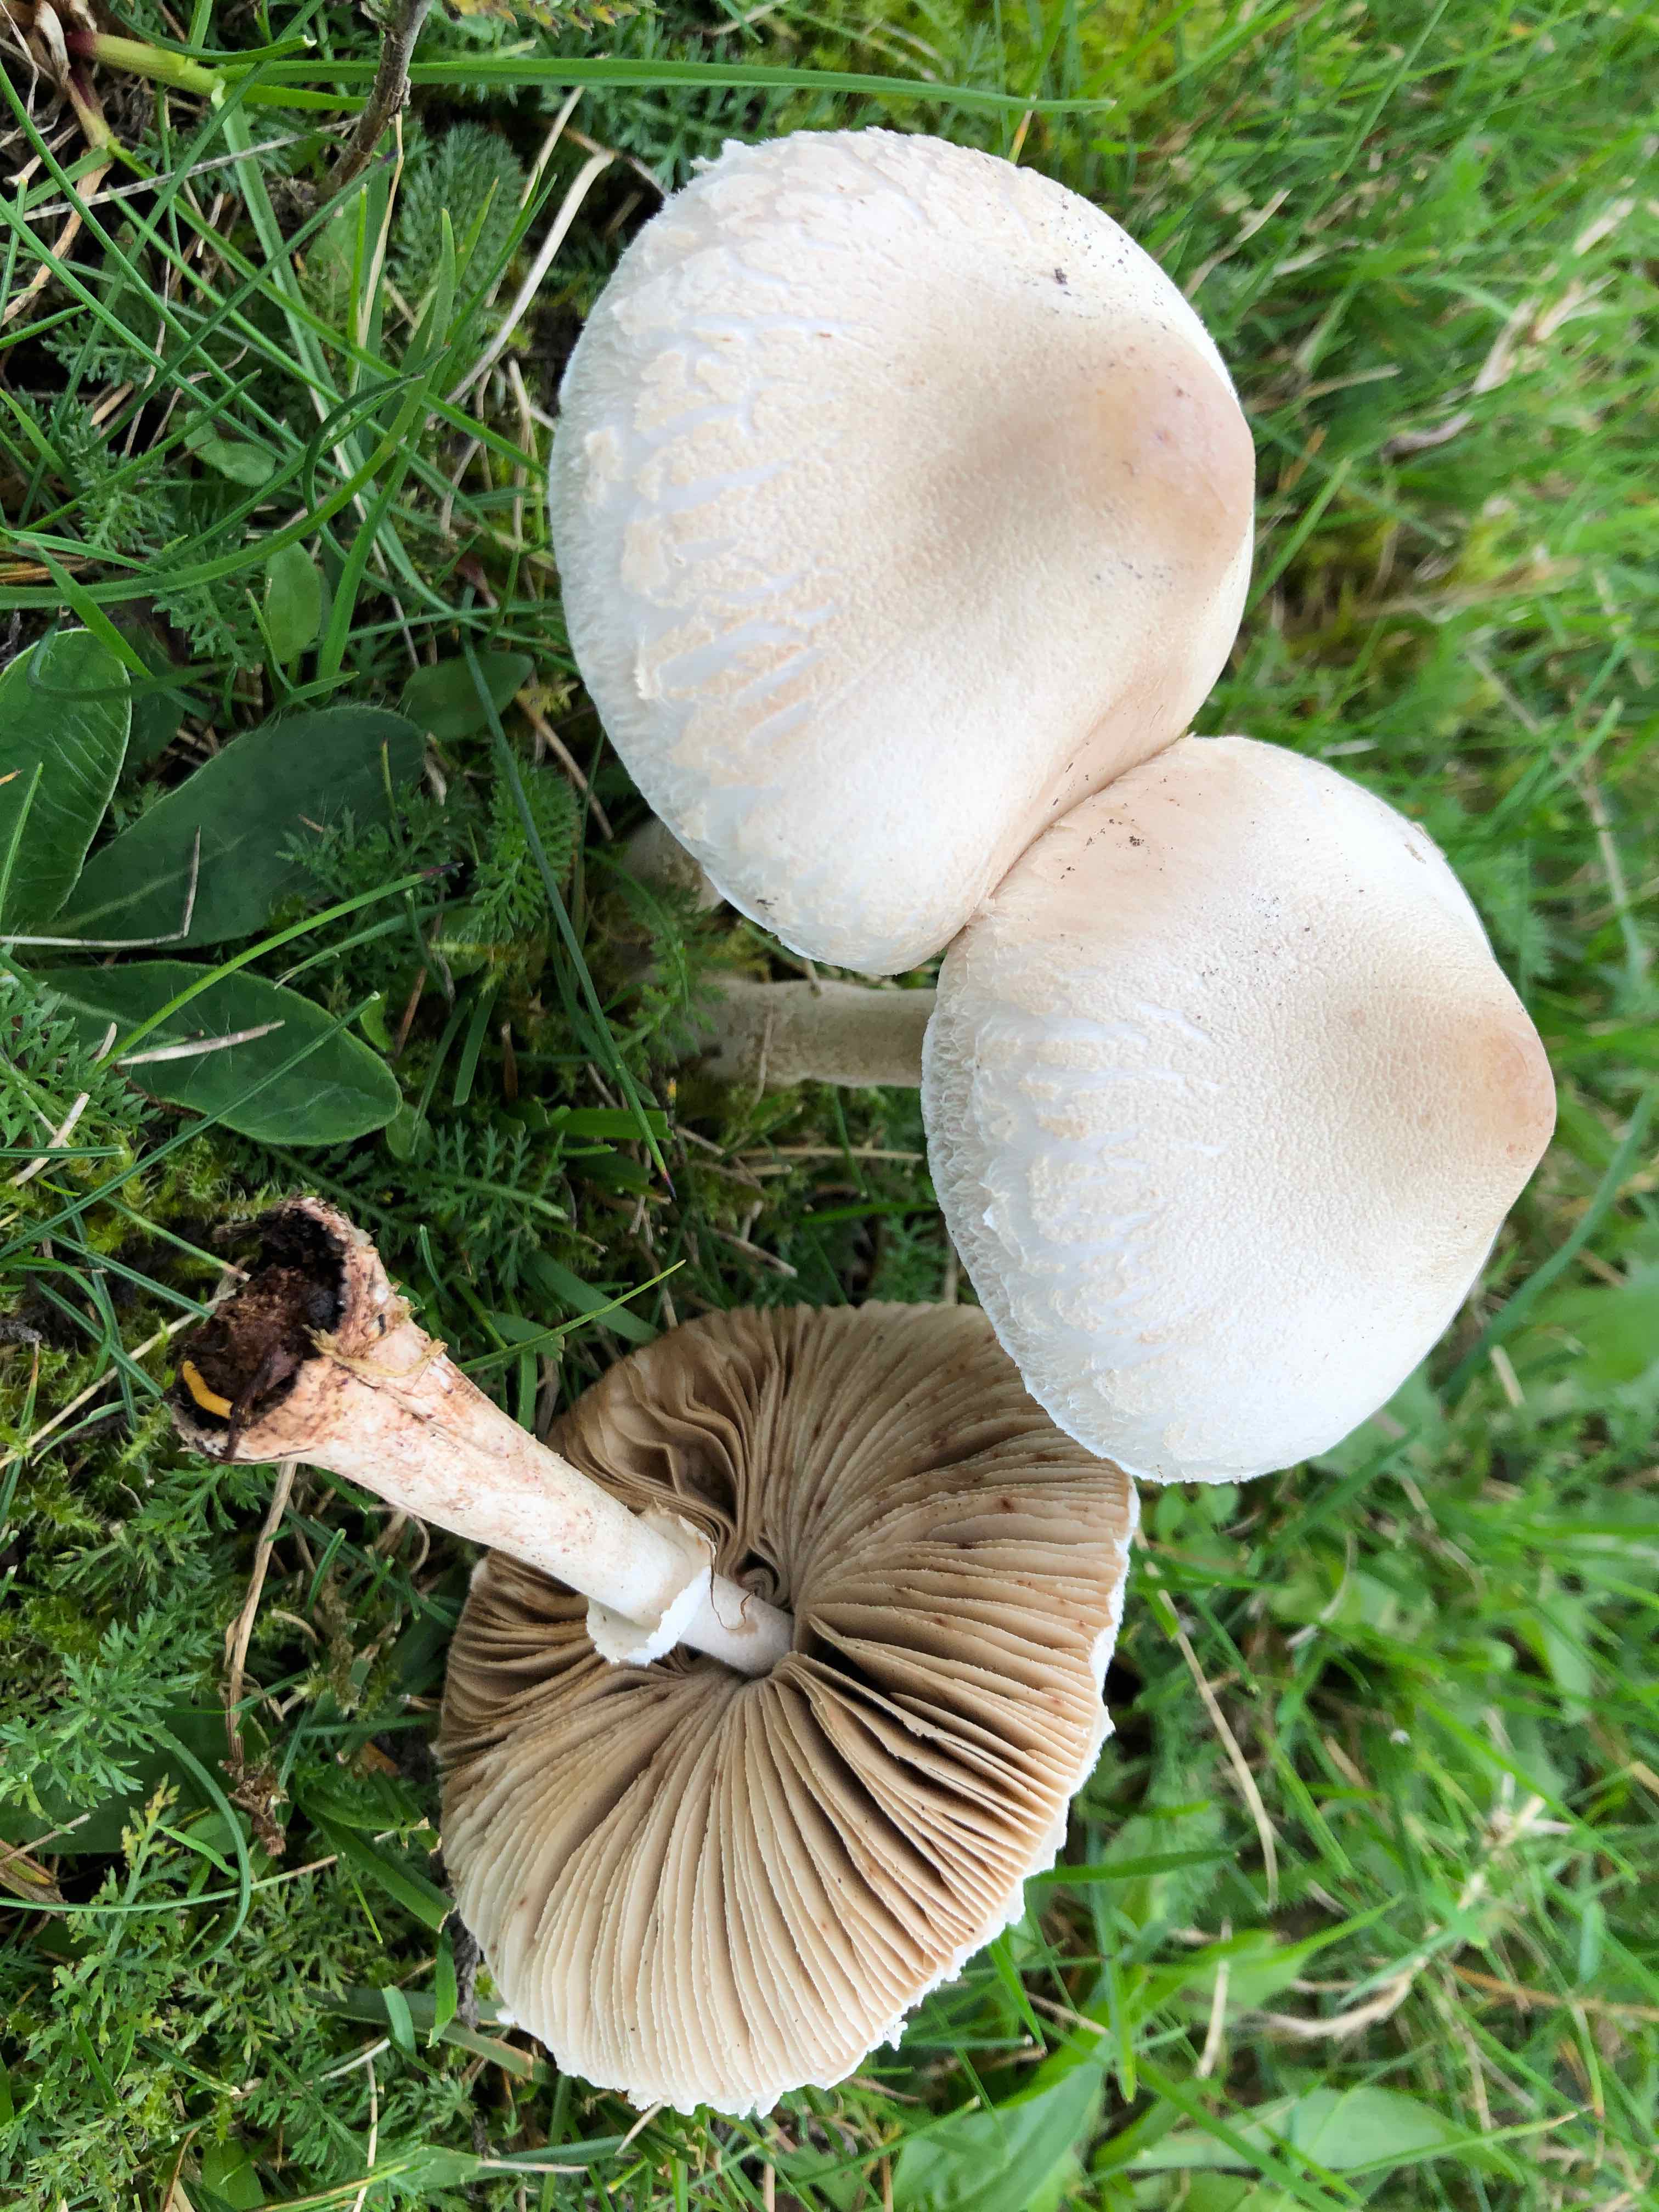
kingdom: Fungi
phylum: Basidiomycota
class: Agaricomycetes
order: Agaricales
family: Agaricaceae
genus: Macrolepiota
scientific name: Macrolepiota excoriata
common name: mark-kæmpeparasolhat
